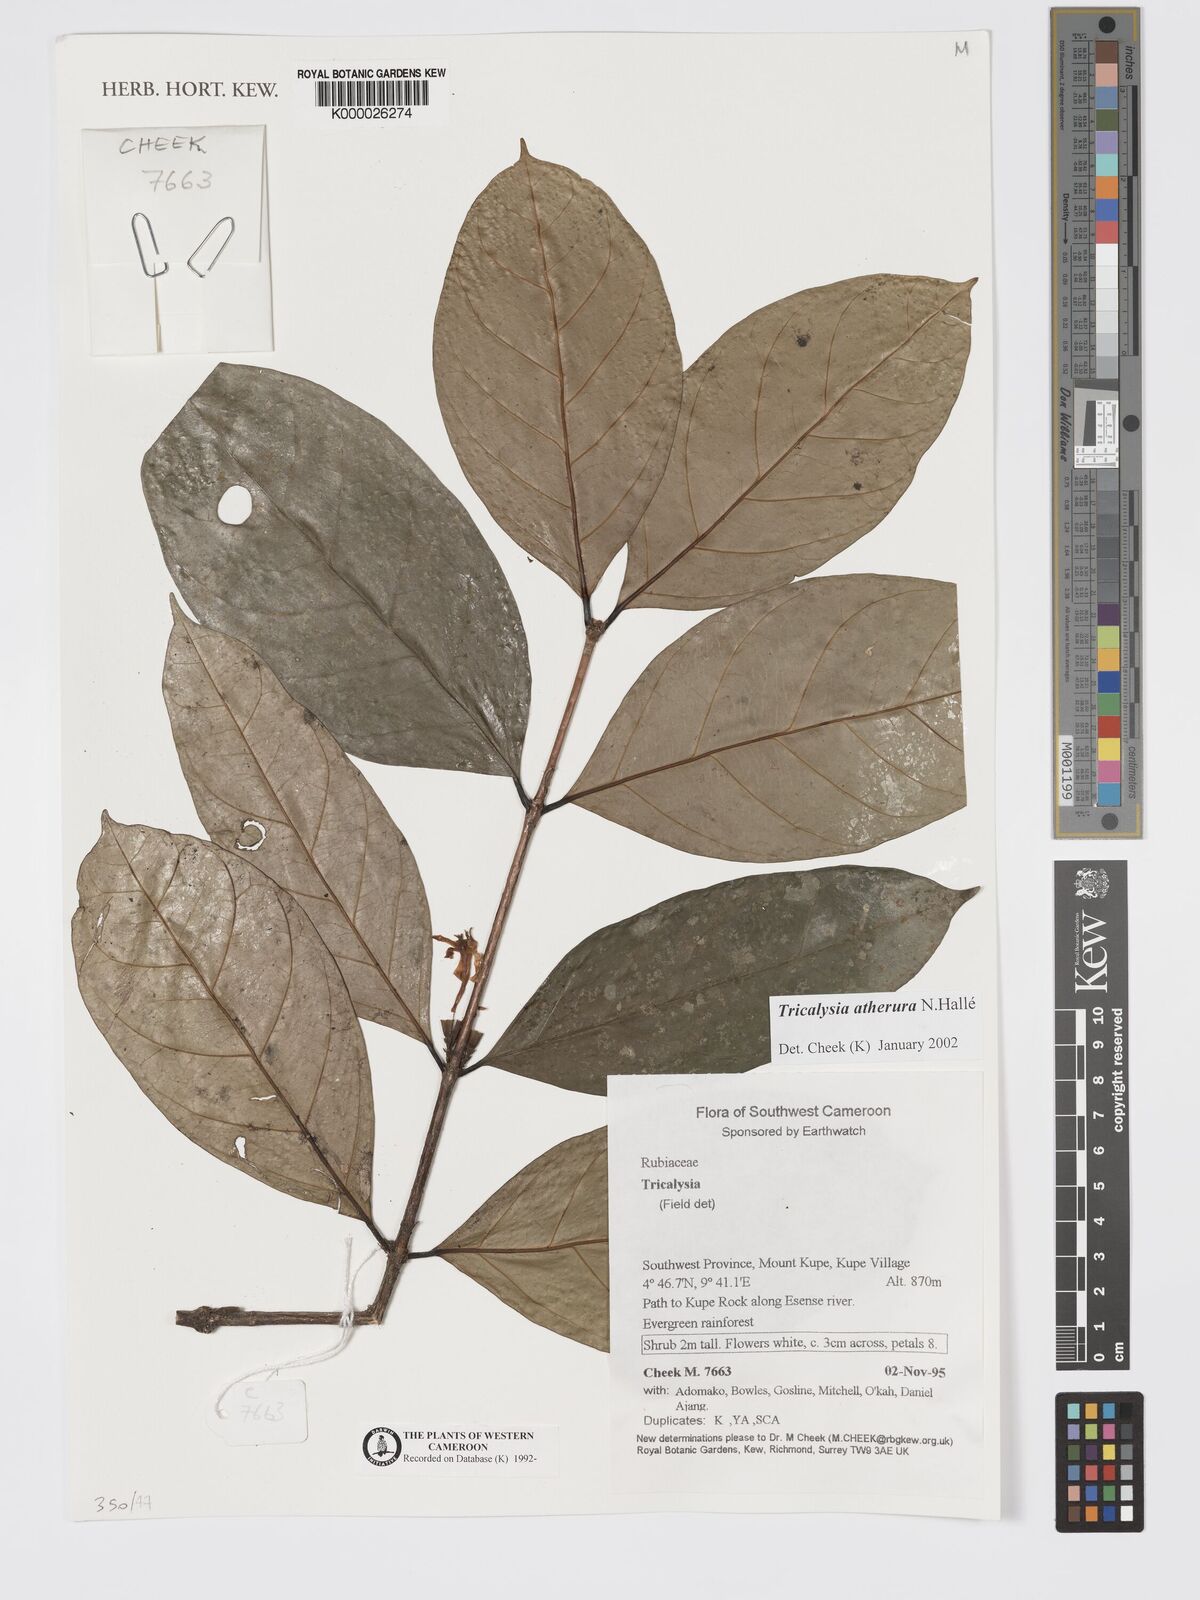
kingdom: Plantae
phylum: Tracheophyta
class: Magnoliopsida
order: Gentianales
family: Rubiaceae
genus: Tricalysia
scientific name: Tricalysia
